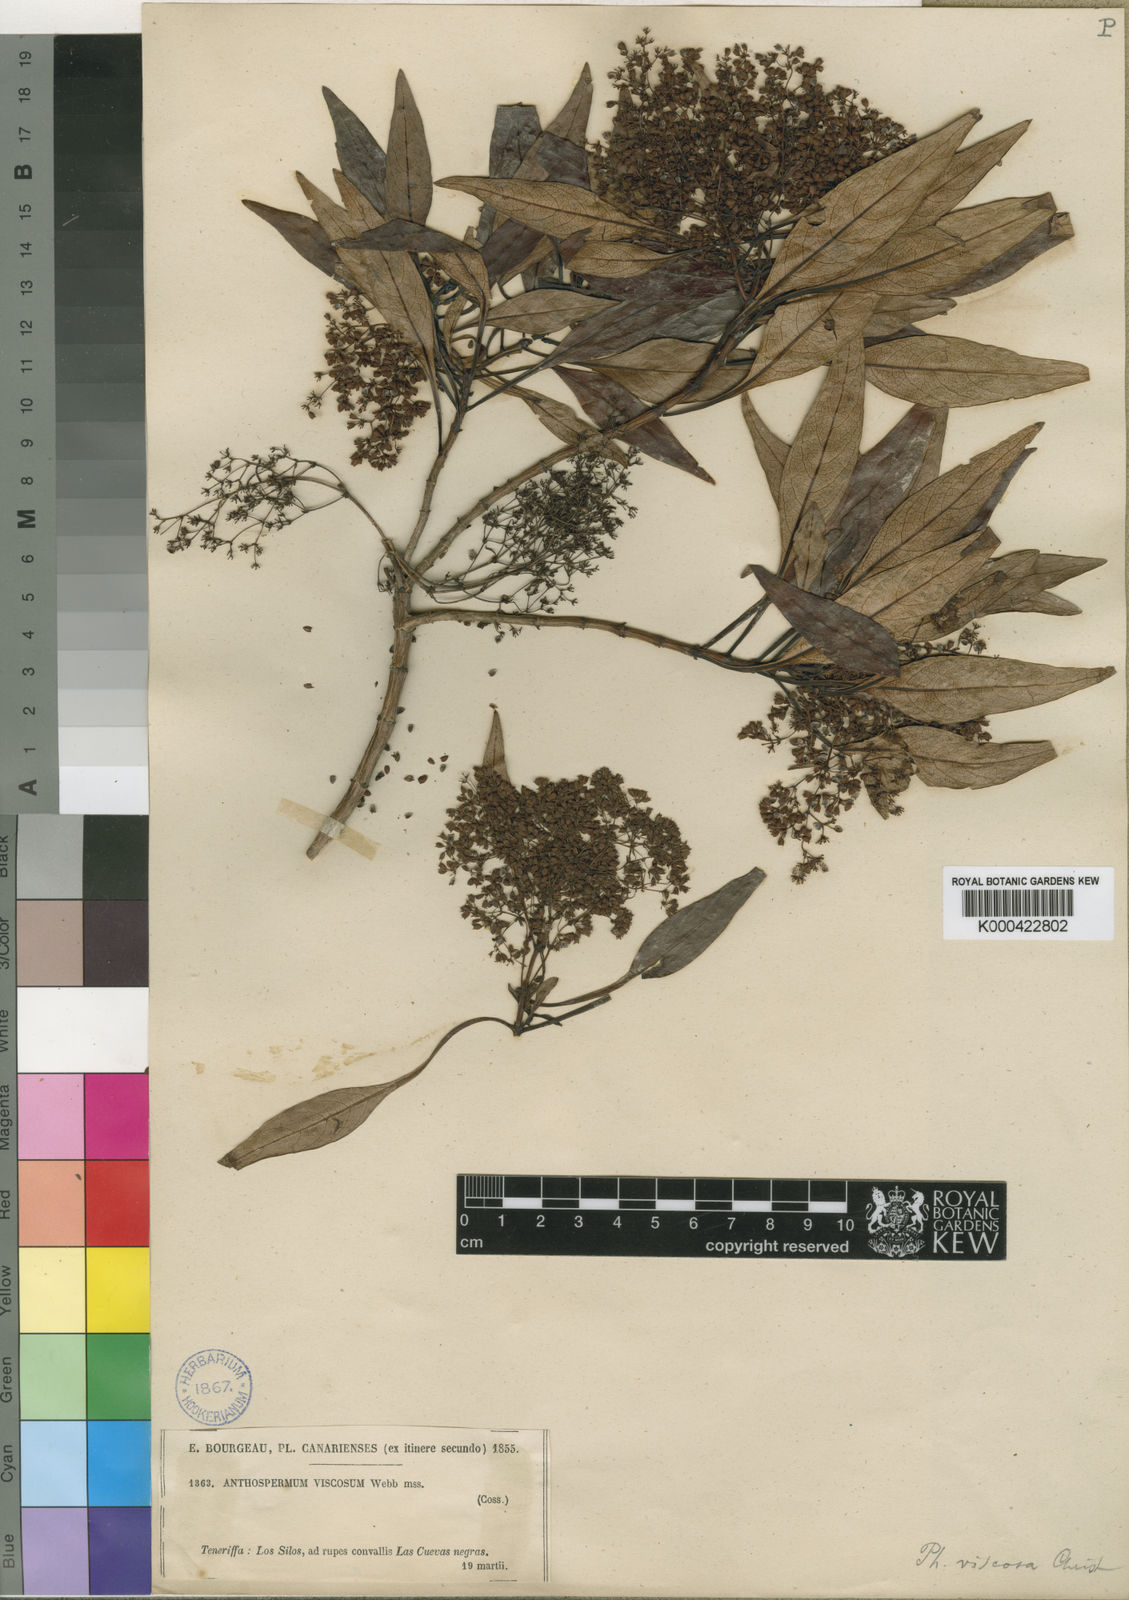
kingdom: Plantae
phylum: Tracheophyta
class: Magnoliopsida
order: Gentianales
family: Rubiaceae
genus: Phyllis
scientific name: Phyllis viscosa
